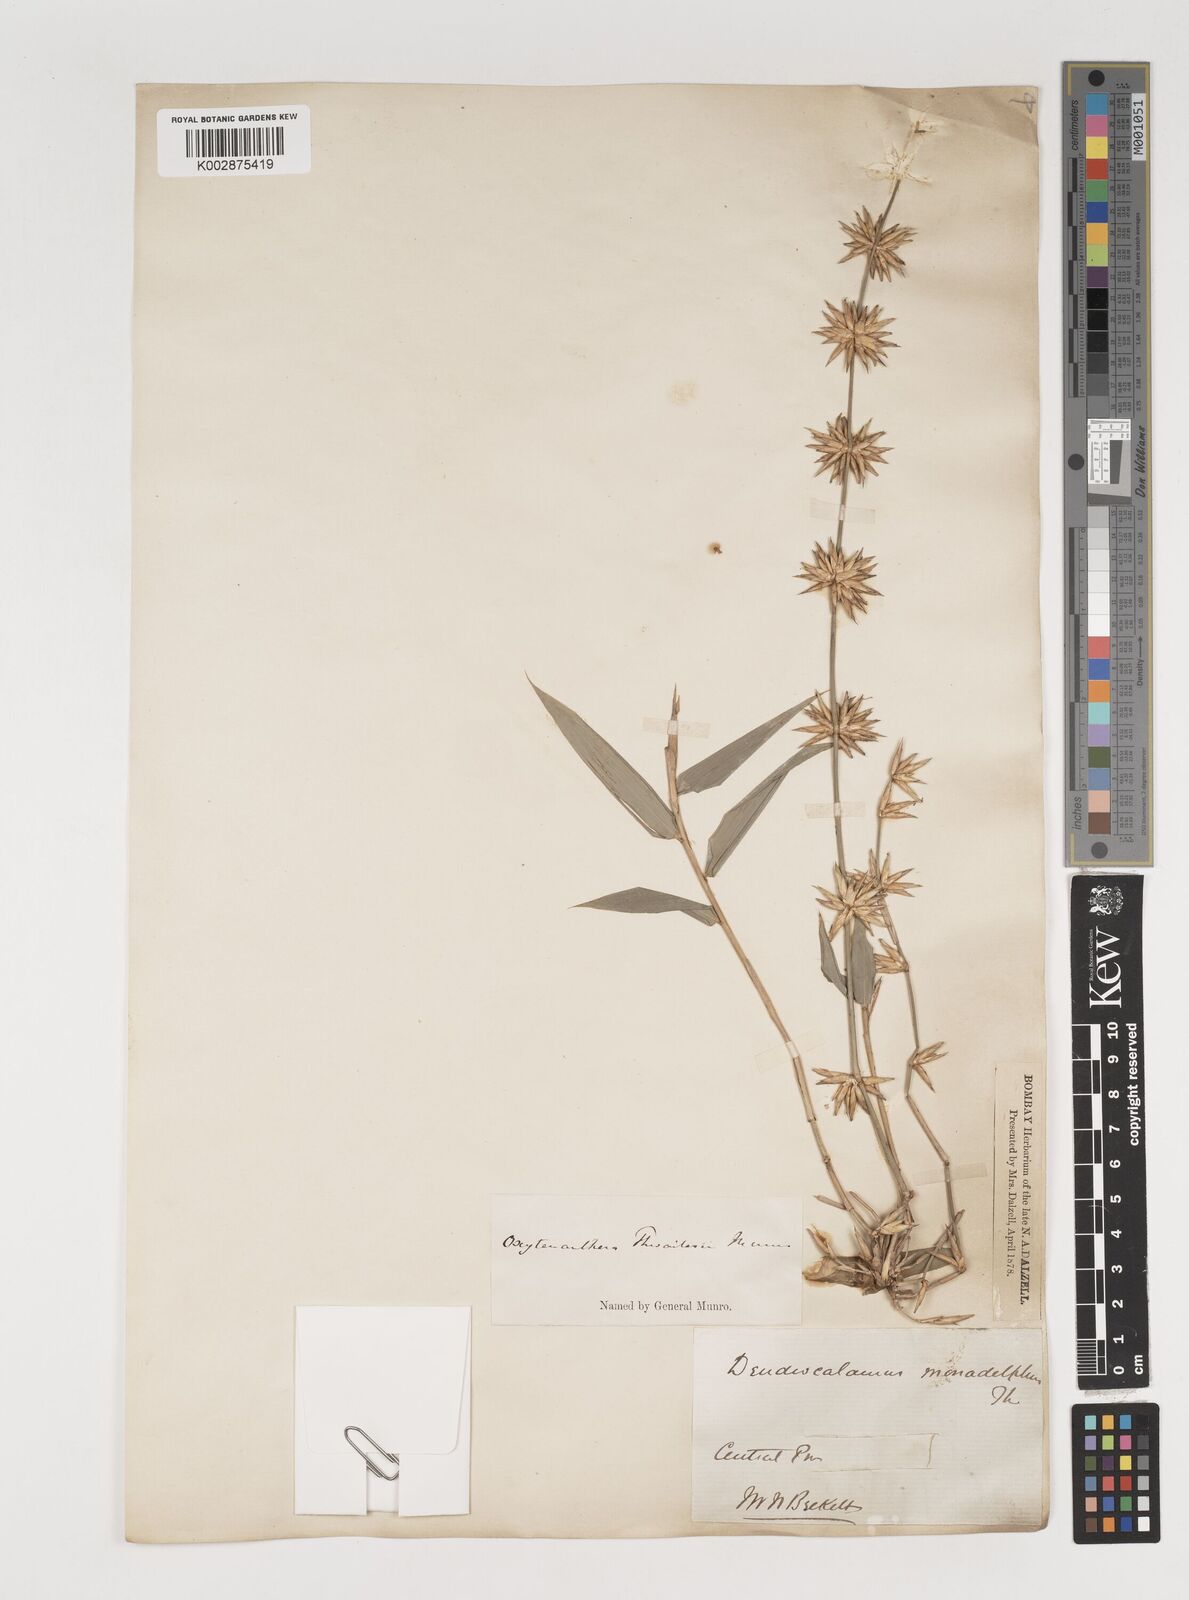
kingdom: Plantae
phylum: Tracheophyta
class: Liliopsida
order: Poales
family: Poaceae
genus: Dendrocalamus
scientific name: Dendrocalamus
